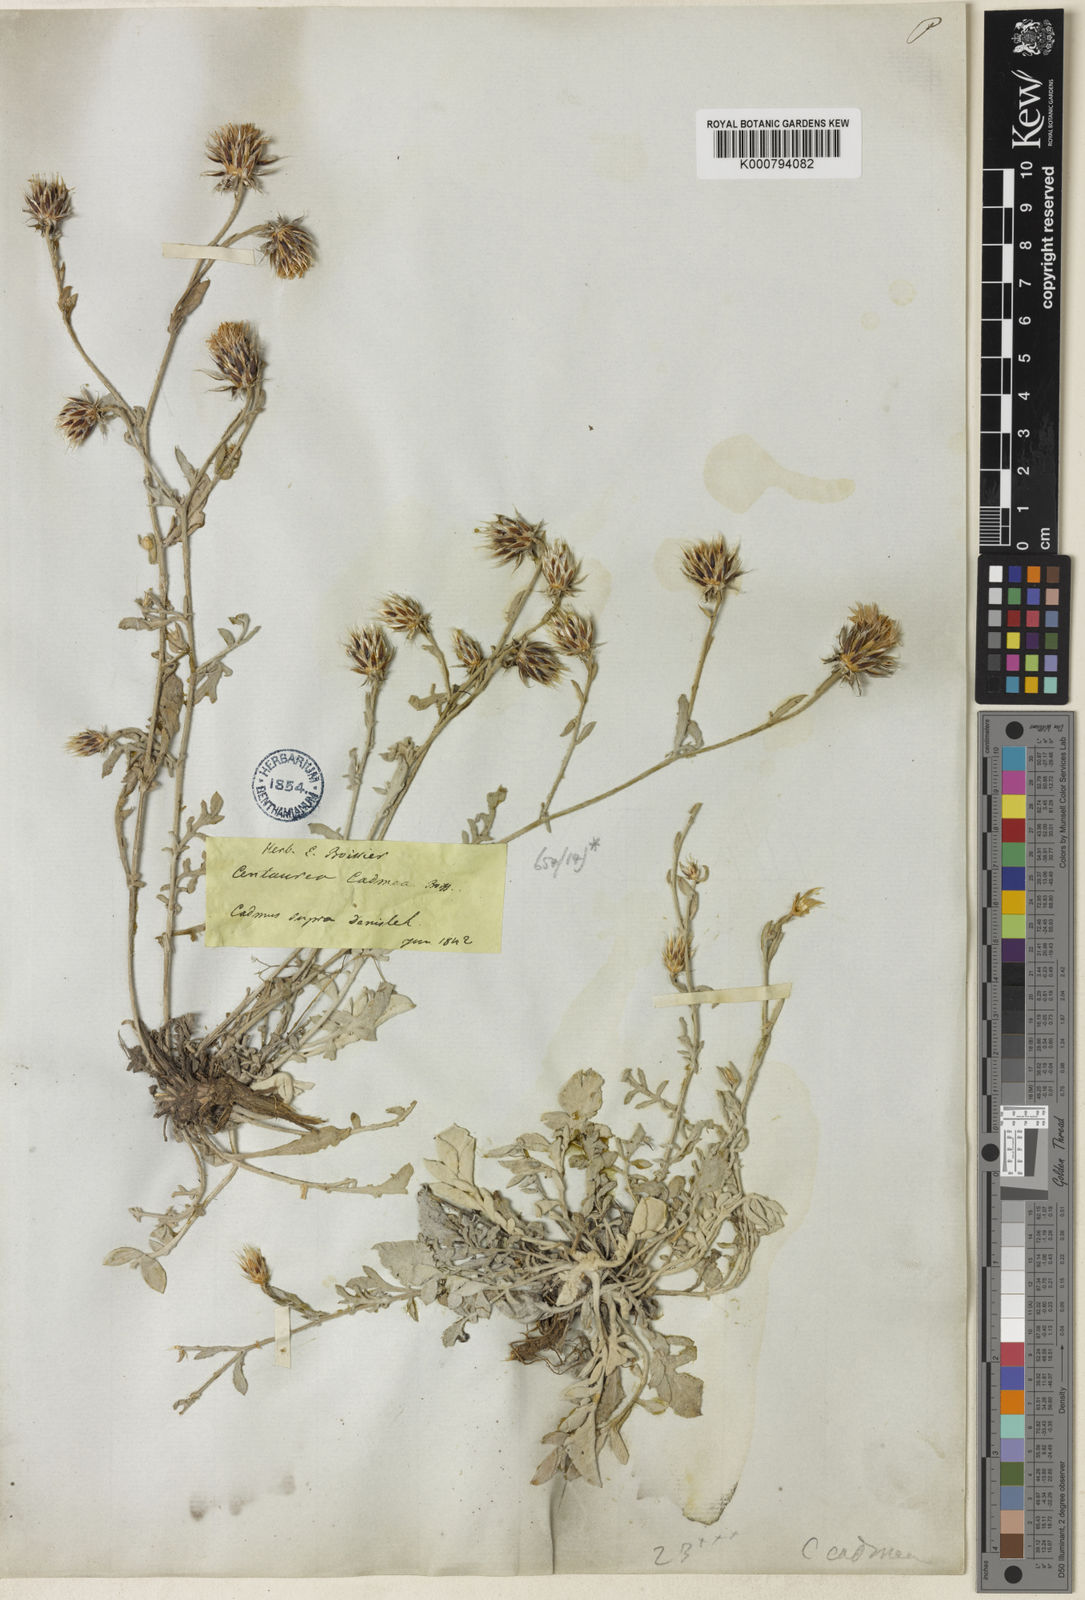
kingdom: Plantae
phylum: Tracheophyta
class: Magnoliopsida
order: Asterales
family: Asteraceae
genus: Centaurea
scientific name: Centaurea cadmea
